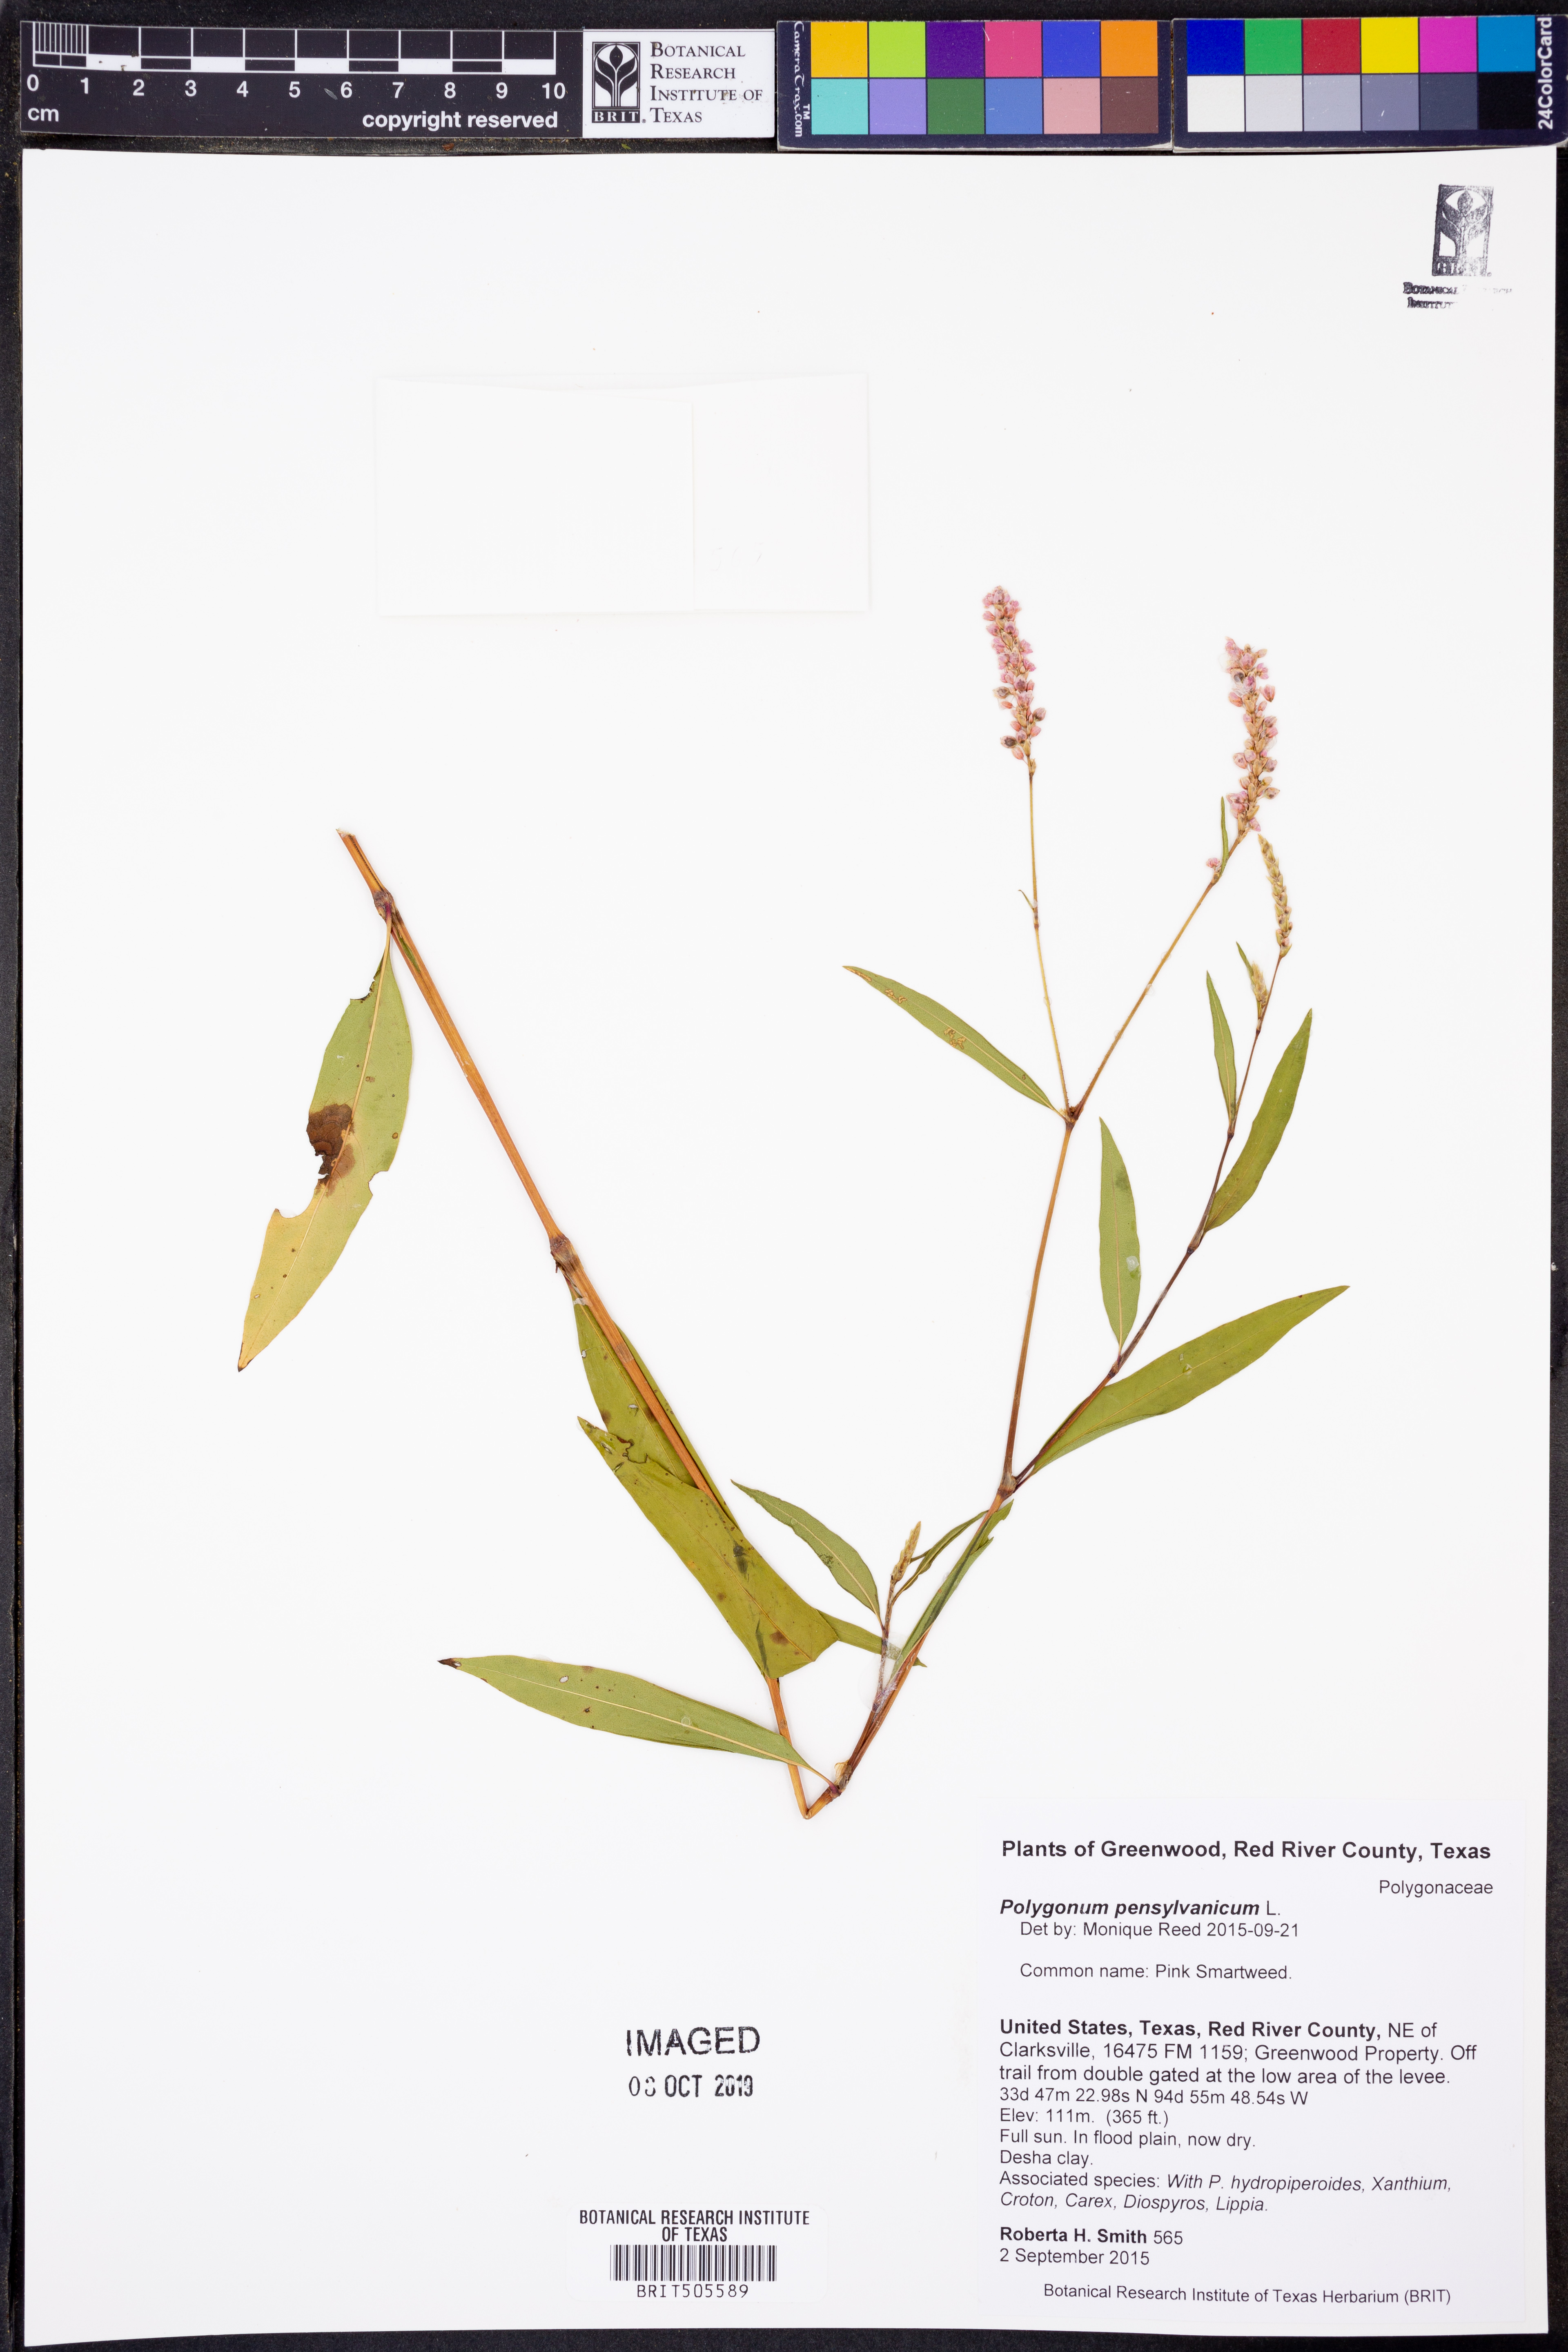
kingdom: Plantae
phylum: Tracheophyta
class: Magnoliopsida
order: Caryophyllales
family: Polygonaceae
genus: Persicaria
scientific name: Persicaria pensylvanica
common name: Pinkweed
